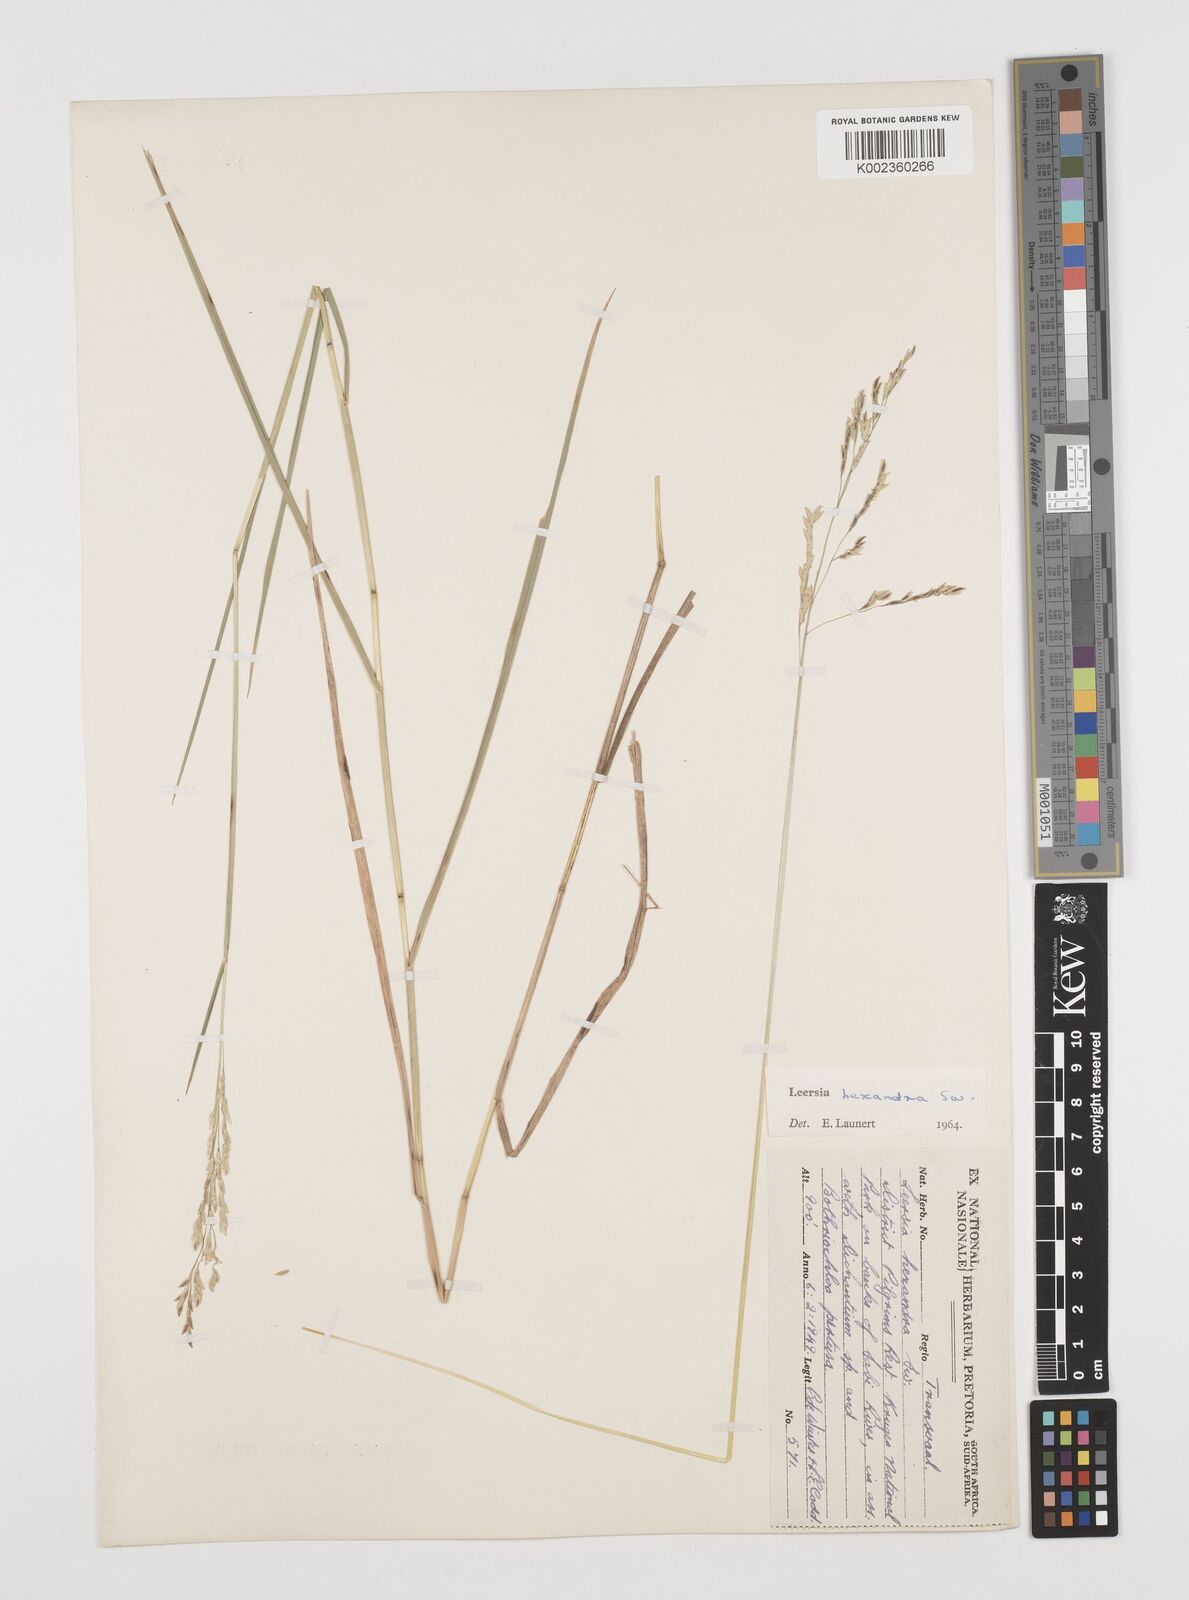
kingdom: Plantae
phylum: Tracheophyta
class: Liliopsida
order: Poales
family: Poaceae
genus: Leersia
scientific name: Leersia hexandra
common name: Southern cut grass
